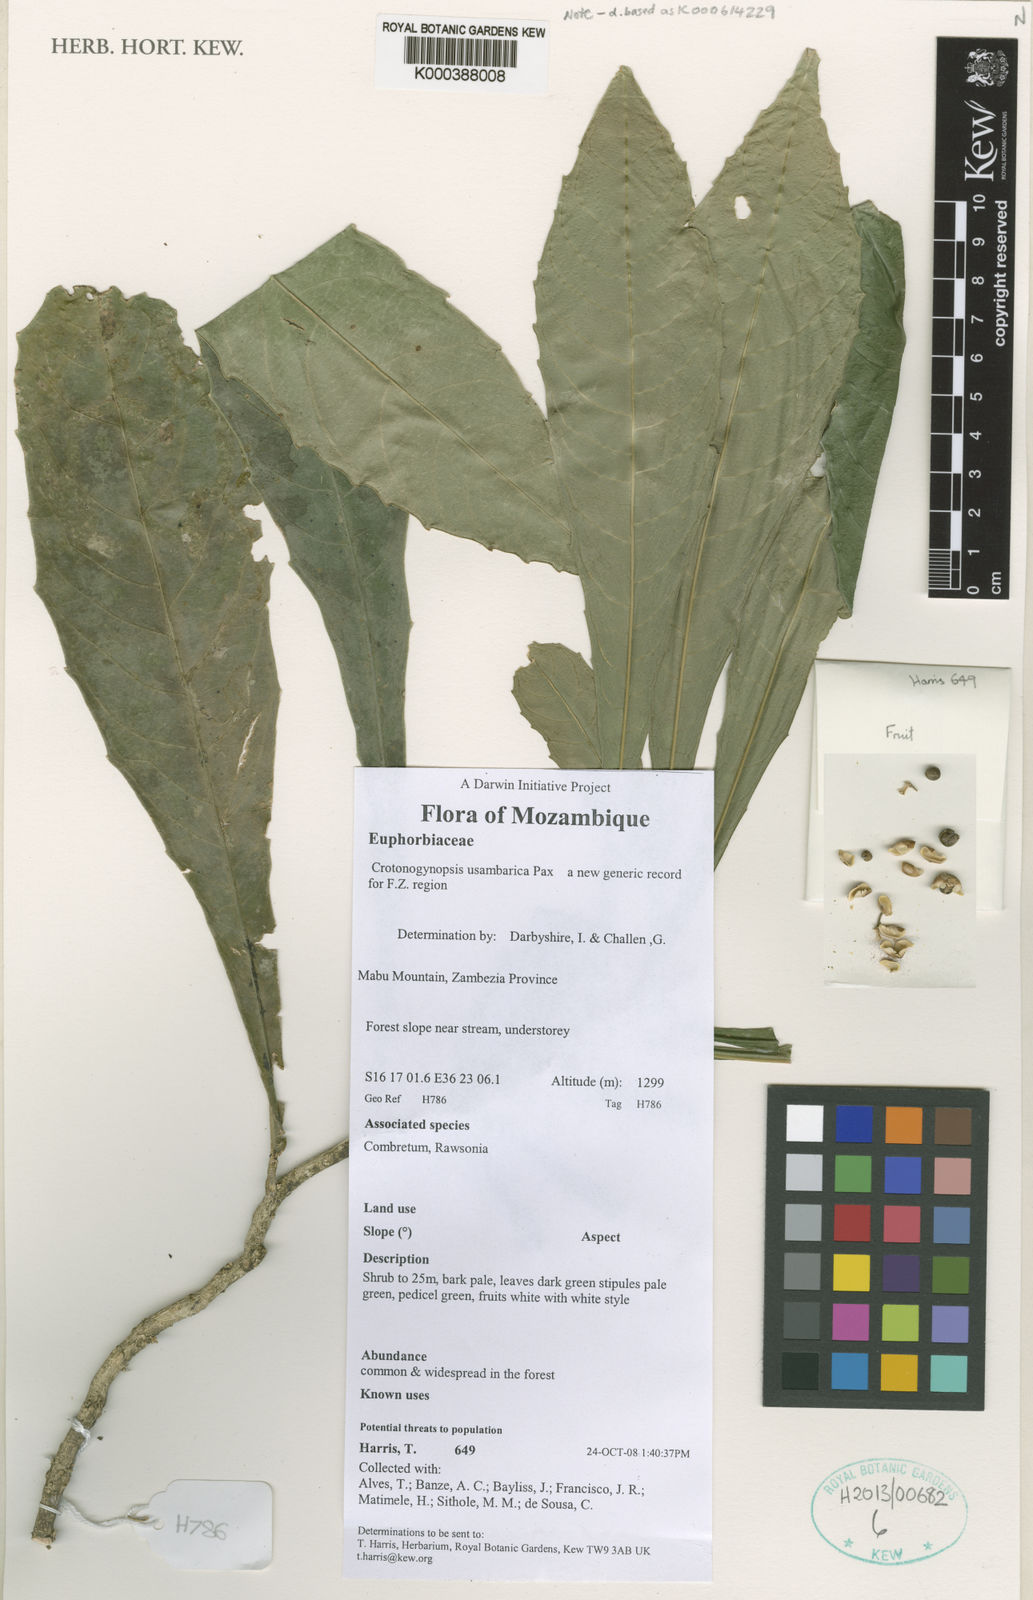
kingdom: Plantae
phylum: Tracheophyta
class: Magnoliopsida
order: Malpighiales
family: Euphorbiaceae
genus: Crotonogynopsis
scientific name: Crotonogynopsis usambarica
